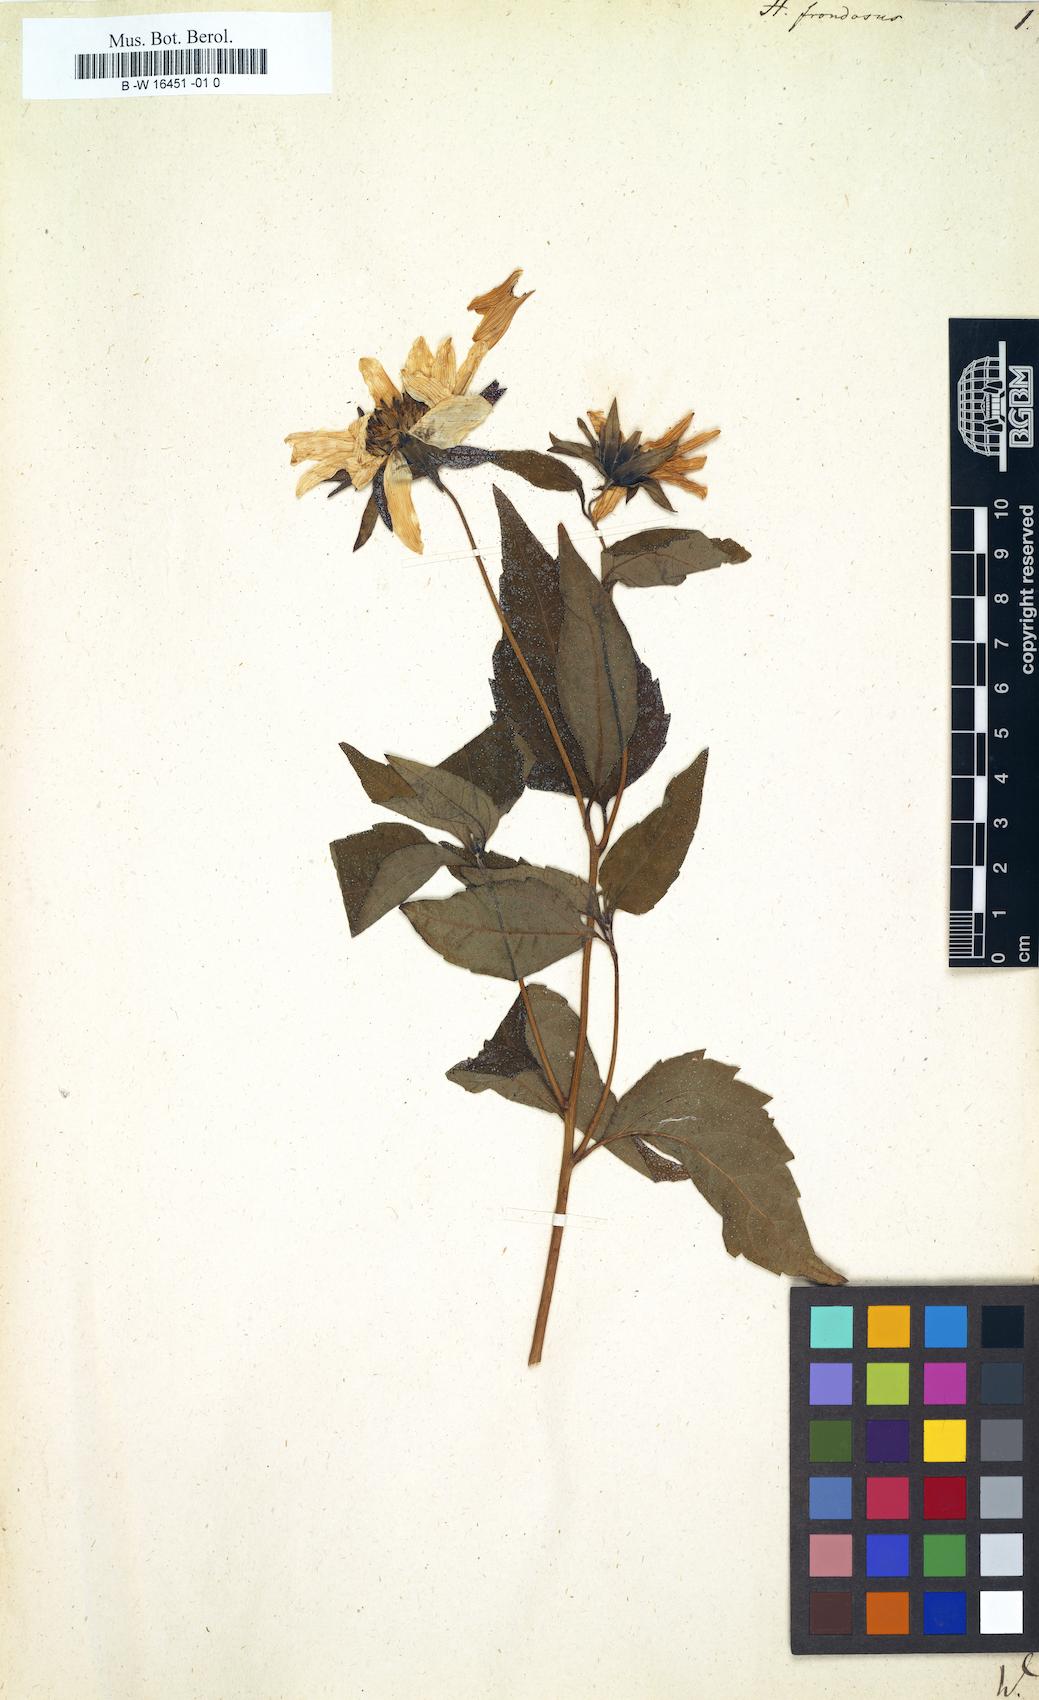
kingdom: Plantae
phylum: Tracheophyta
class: Magnoliopsida
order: Asterales
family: Asteraceae
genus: Helianthus
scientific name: Helianthus decapetalus
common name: Thin-leaved sunflower
